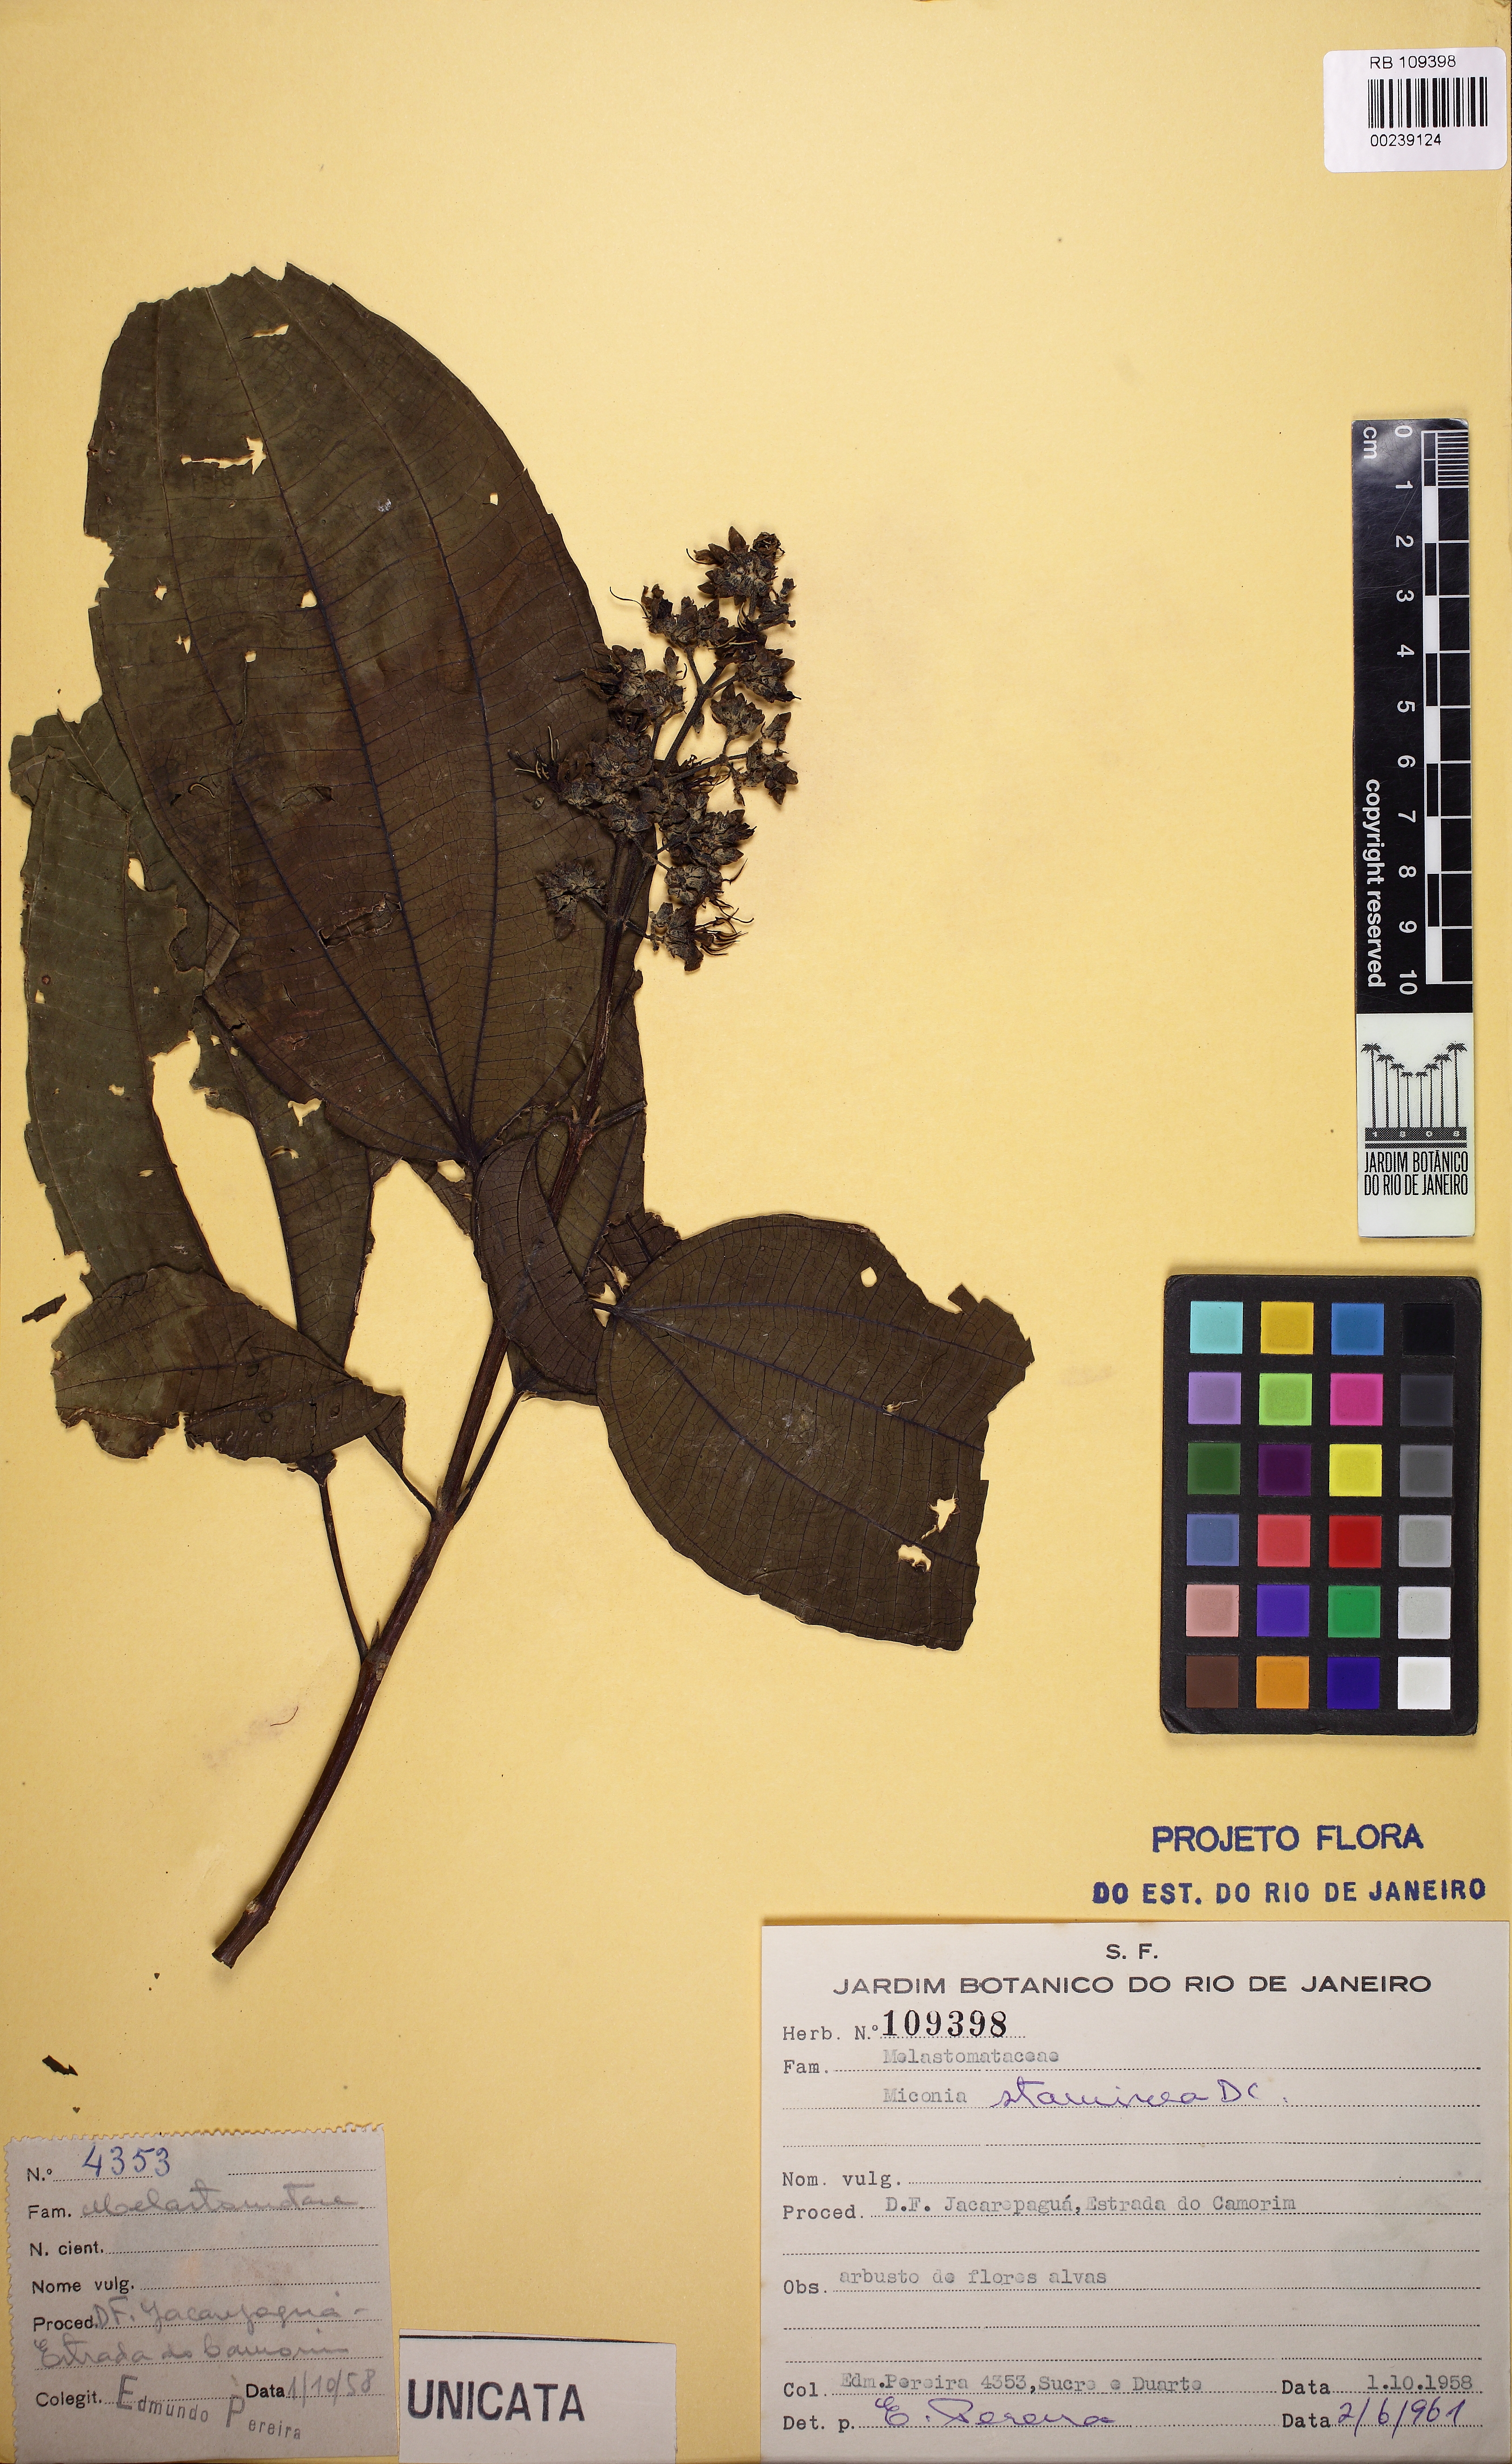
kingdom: Plantae
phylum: Tracheophyta
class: Magnoliopsida
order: Myrtales
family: Melastomataceae
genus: Miconia
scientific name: Miconia staminea
